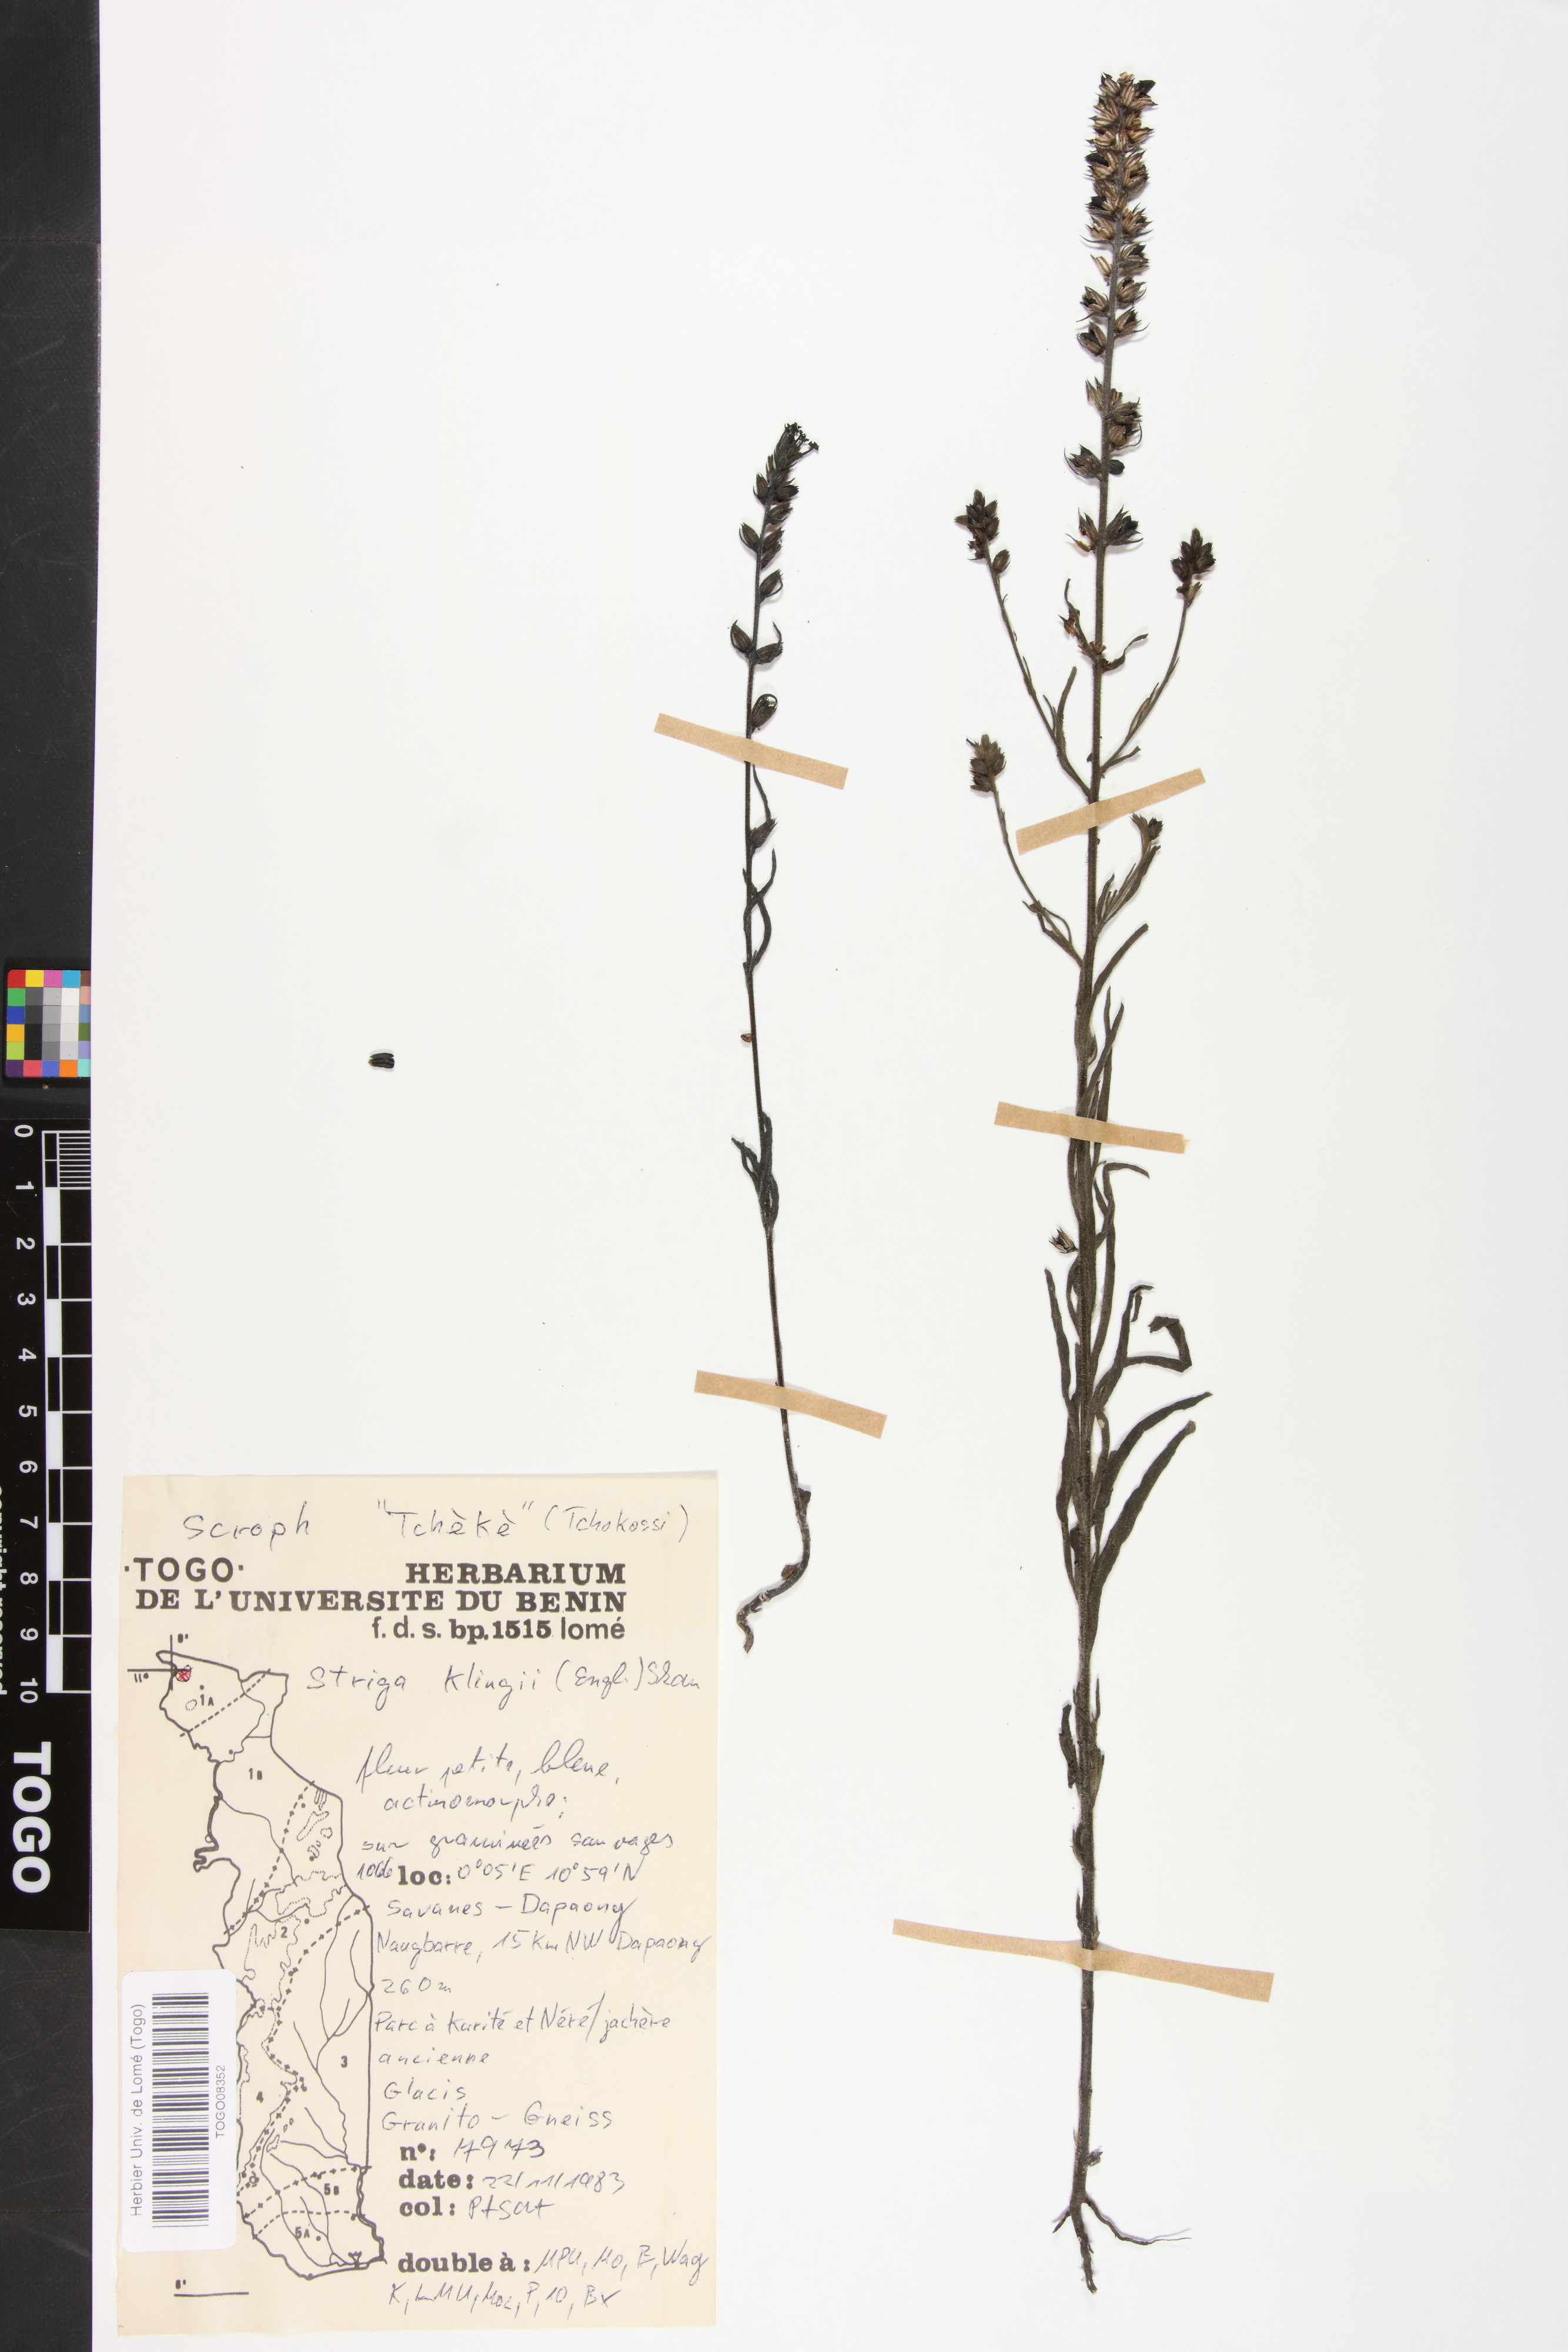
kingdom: Plantae
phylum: Tracheophyta
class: Magnoliopsida
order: Lamiales
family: Orobanchaceae
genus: Striga
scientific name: Striga klingii
